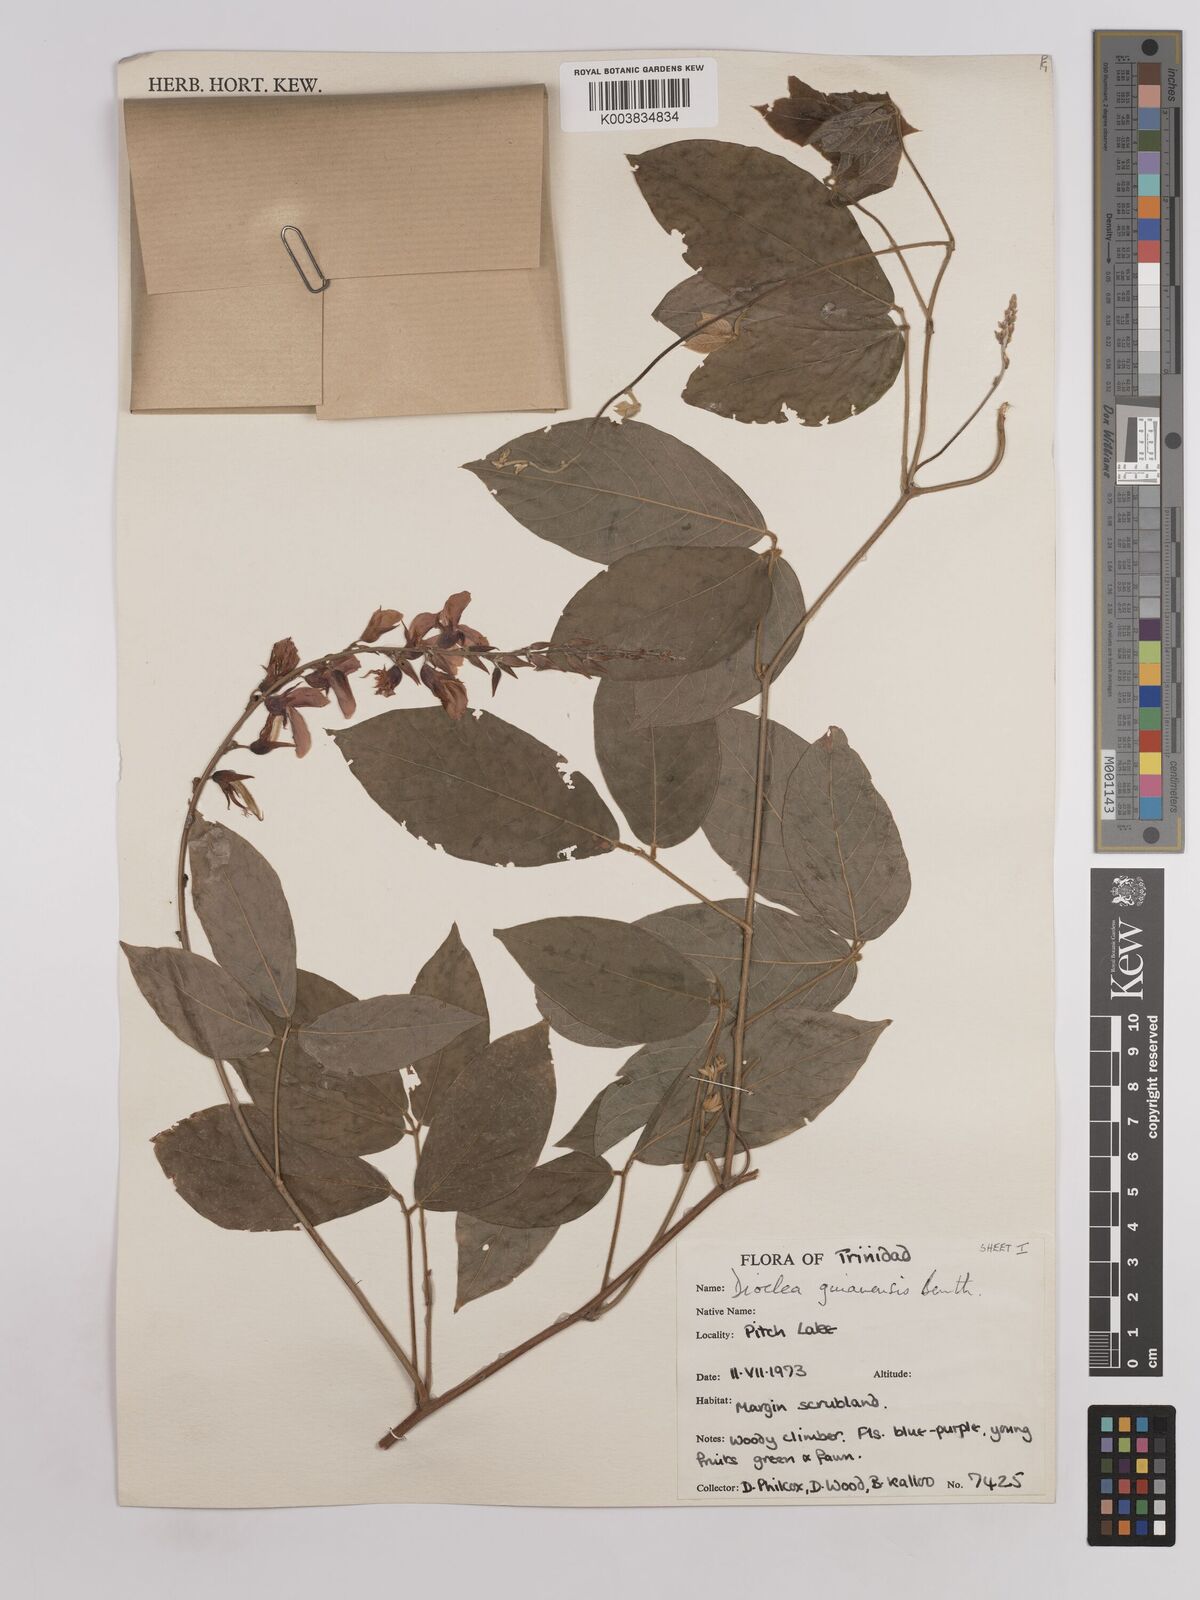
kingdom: Plantae
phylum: Tracheophyta
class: Magnoliopsida
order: Fabales
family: Fabaceae
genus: Dioclea
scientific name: Dioclea guianensis
